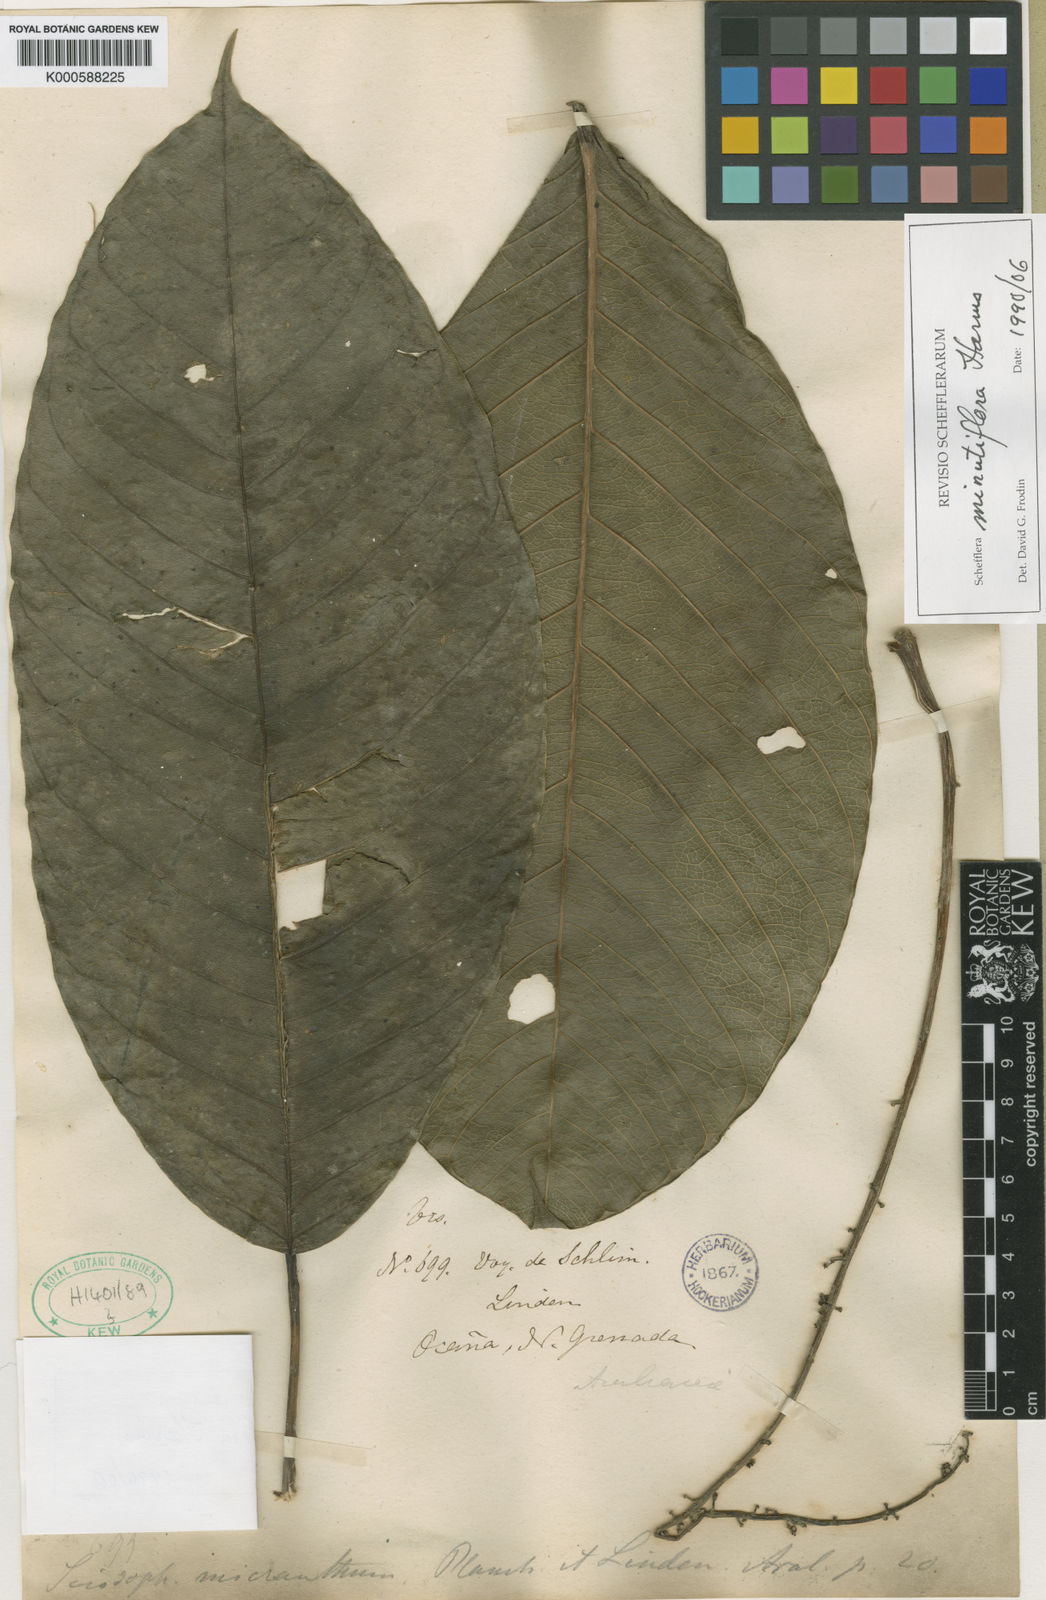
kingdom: Plantae
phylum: Tracheophyta
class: Magnoliopsida
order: Apiales
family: Araliaceae
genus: Sciodaphyllum
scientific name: Sciodaphyllum minutiflorum
